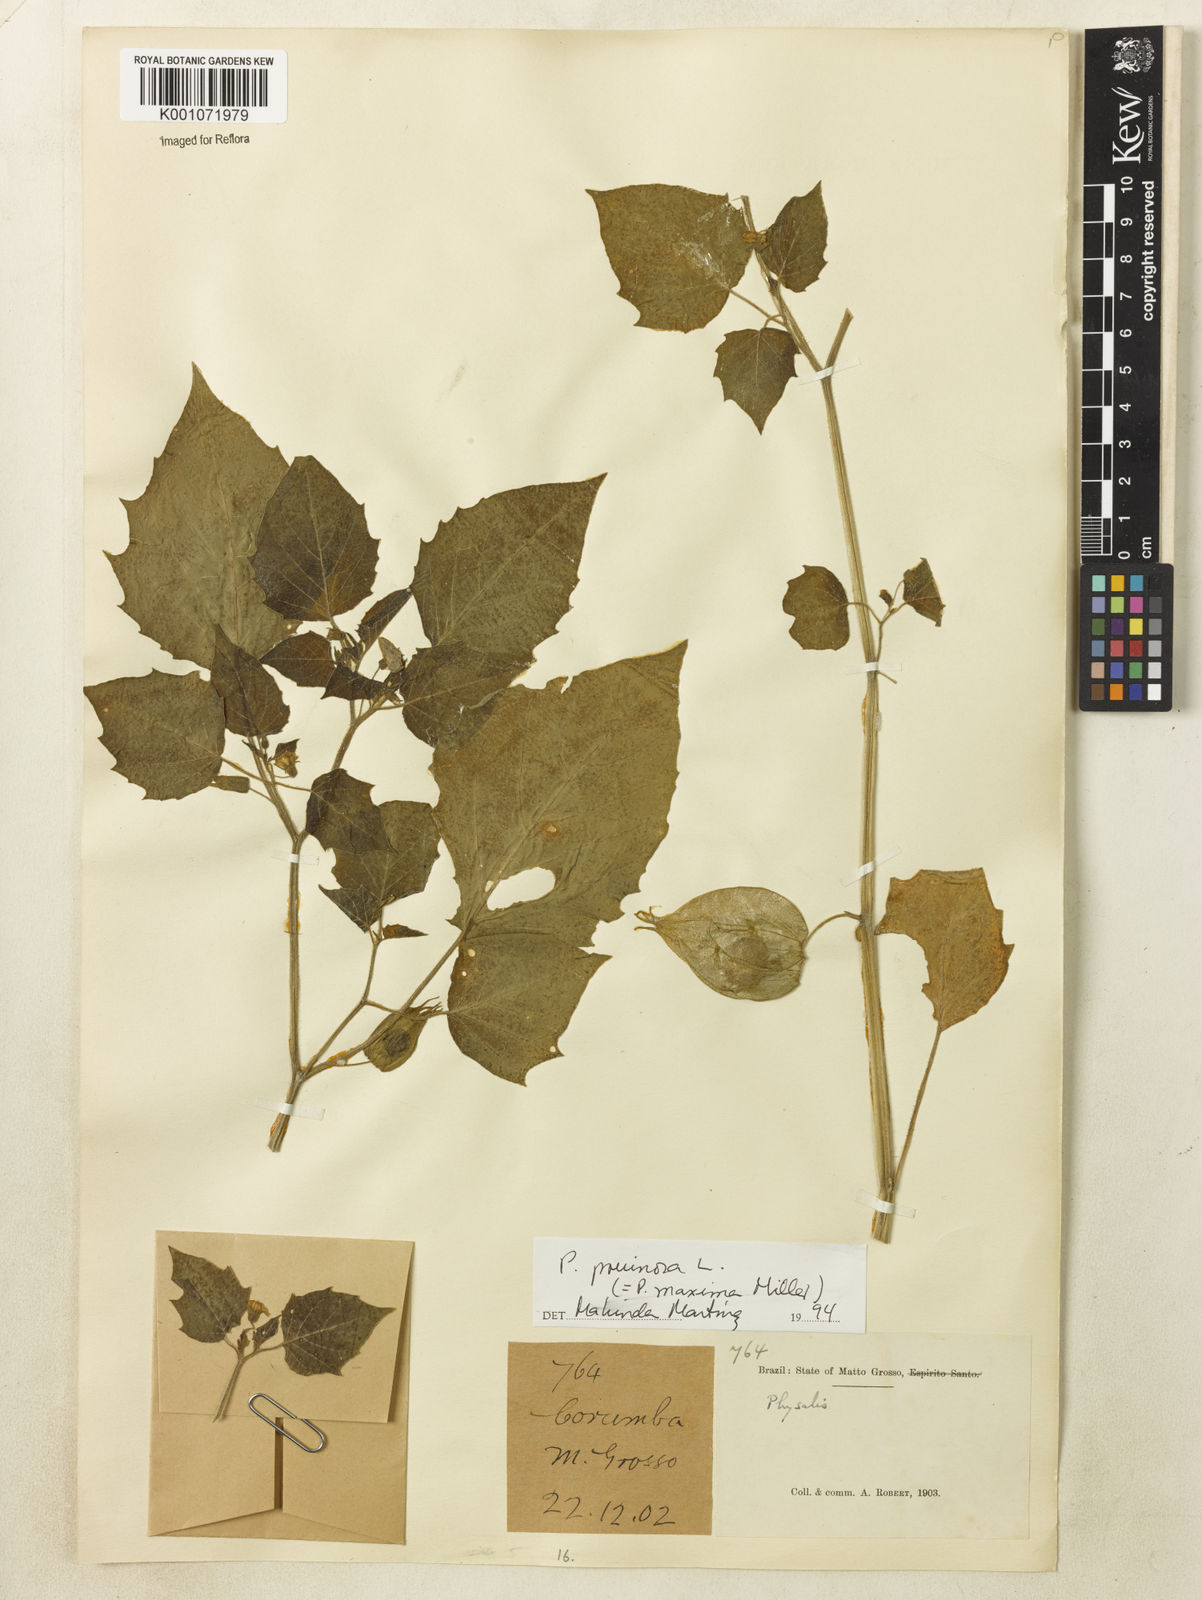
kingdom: Plantae
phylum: Tracheophyta
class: Magnoliopsida
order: Solanales
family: Solanaceae
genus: Physalis
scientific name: Physalis pruinosa
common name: Strawberry tomato
